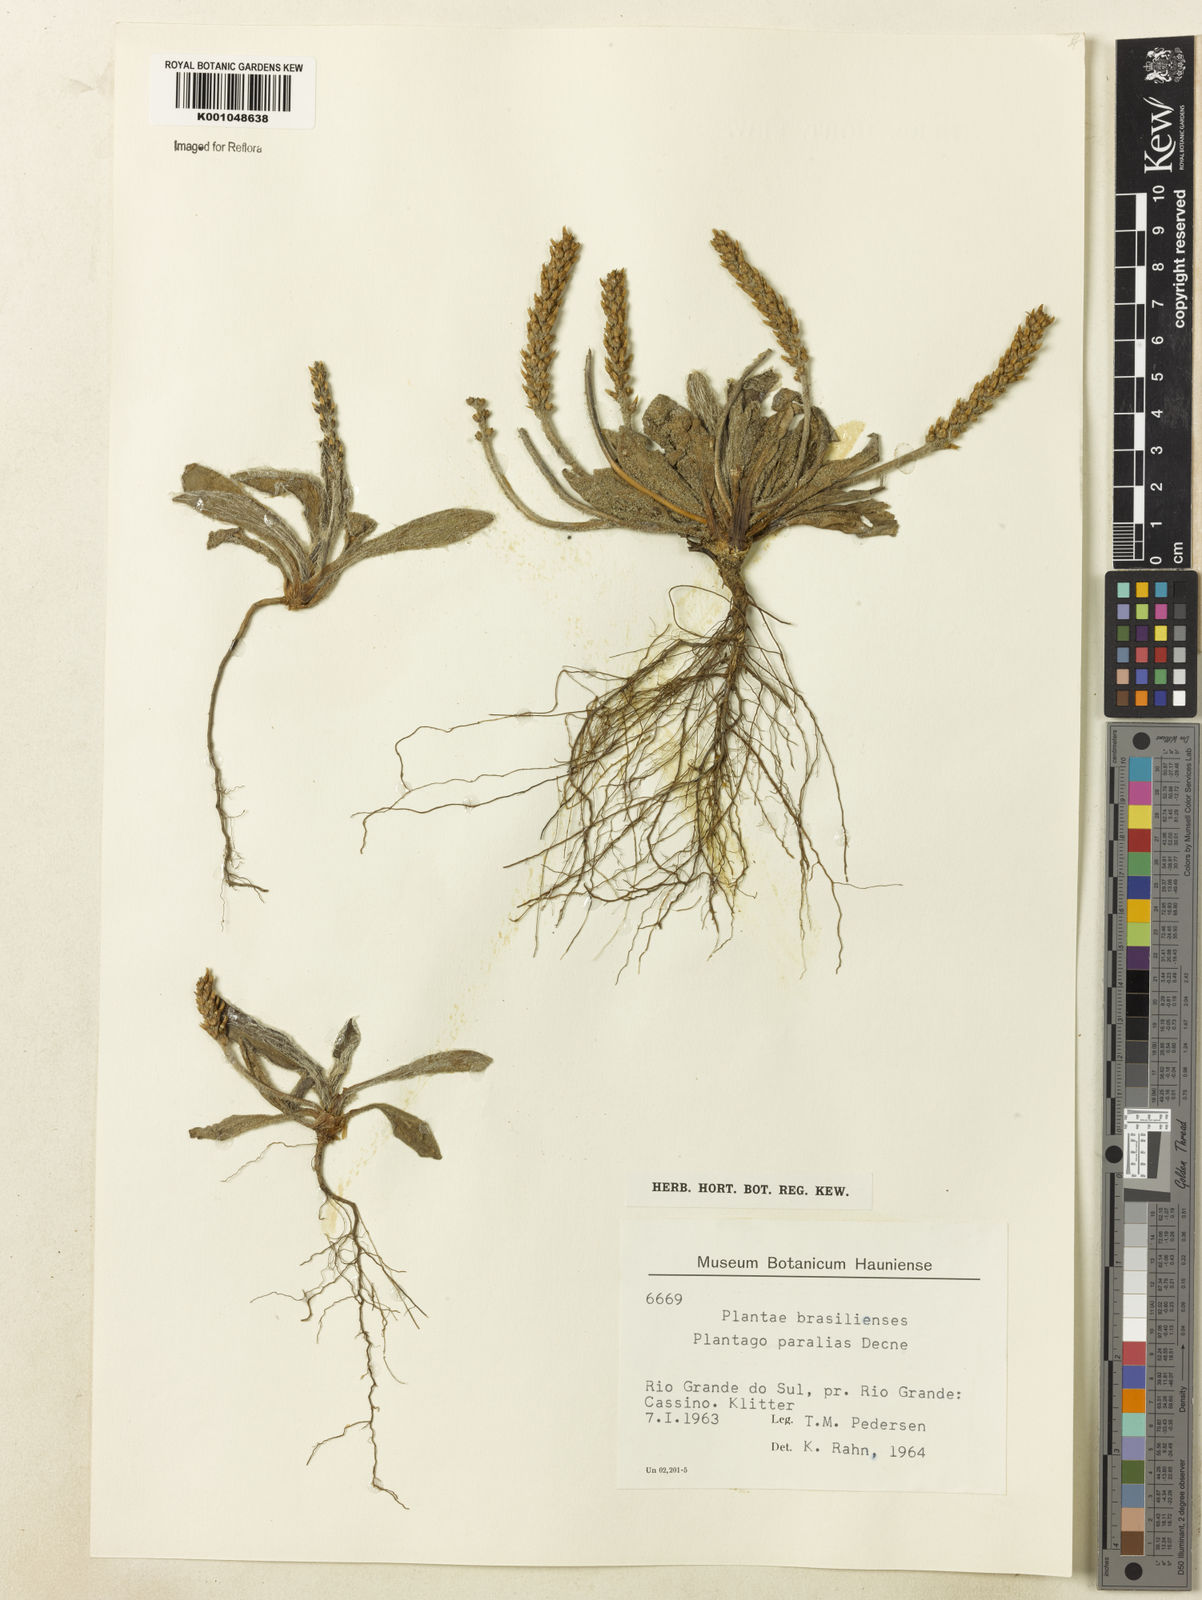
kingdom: Plantae
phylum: Tracheophyta
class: Magnoliopsida
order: Lamiales
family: Plantaginaceae
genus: Plantago
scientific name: Plantago tomentosa
